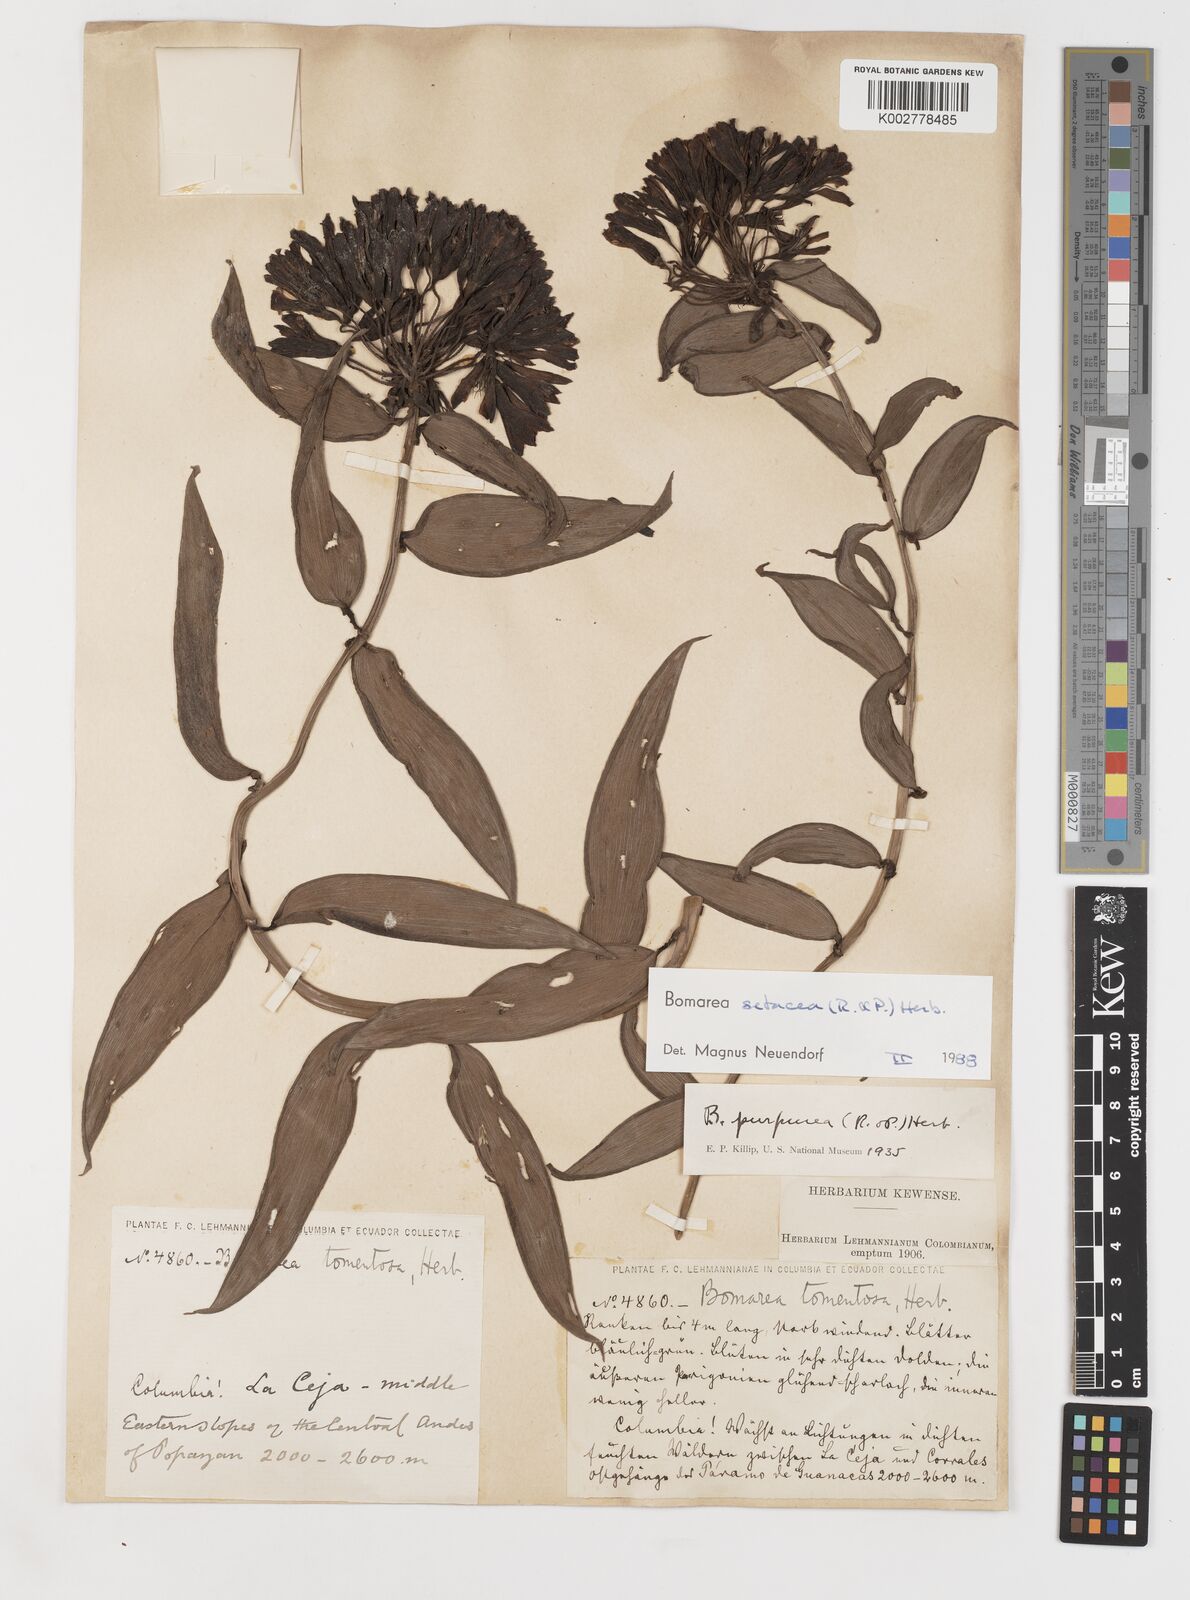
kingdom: Plantae
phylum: Tracheophyta
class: Liliopsida
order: Liliales
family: Alstroemeriaceae
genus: Bomarea
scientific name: Bomarea setacea
